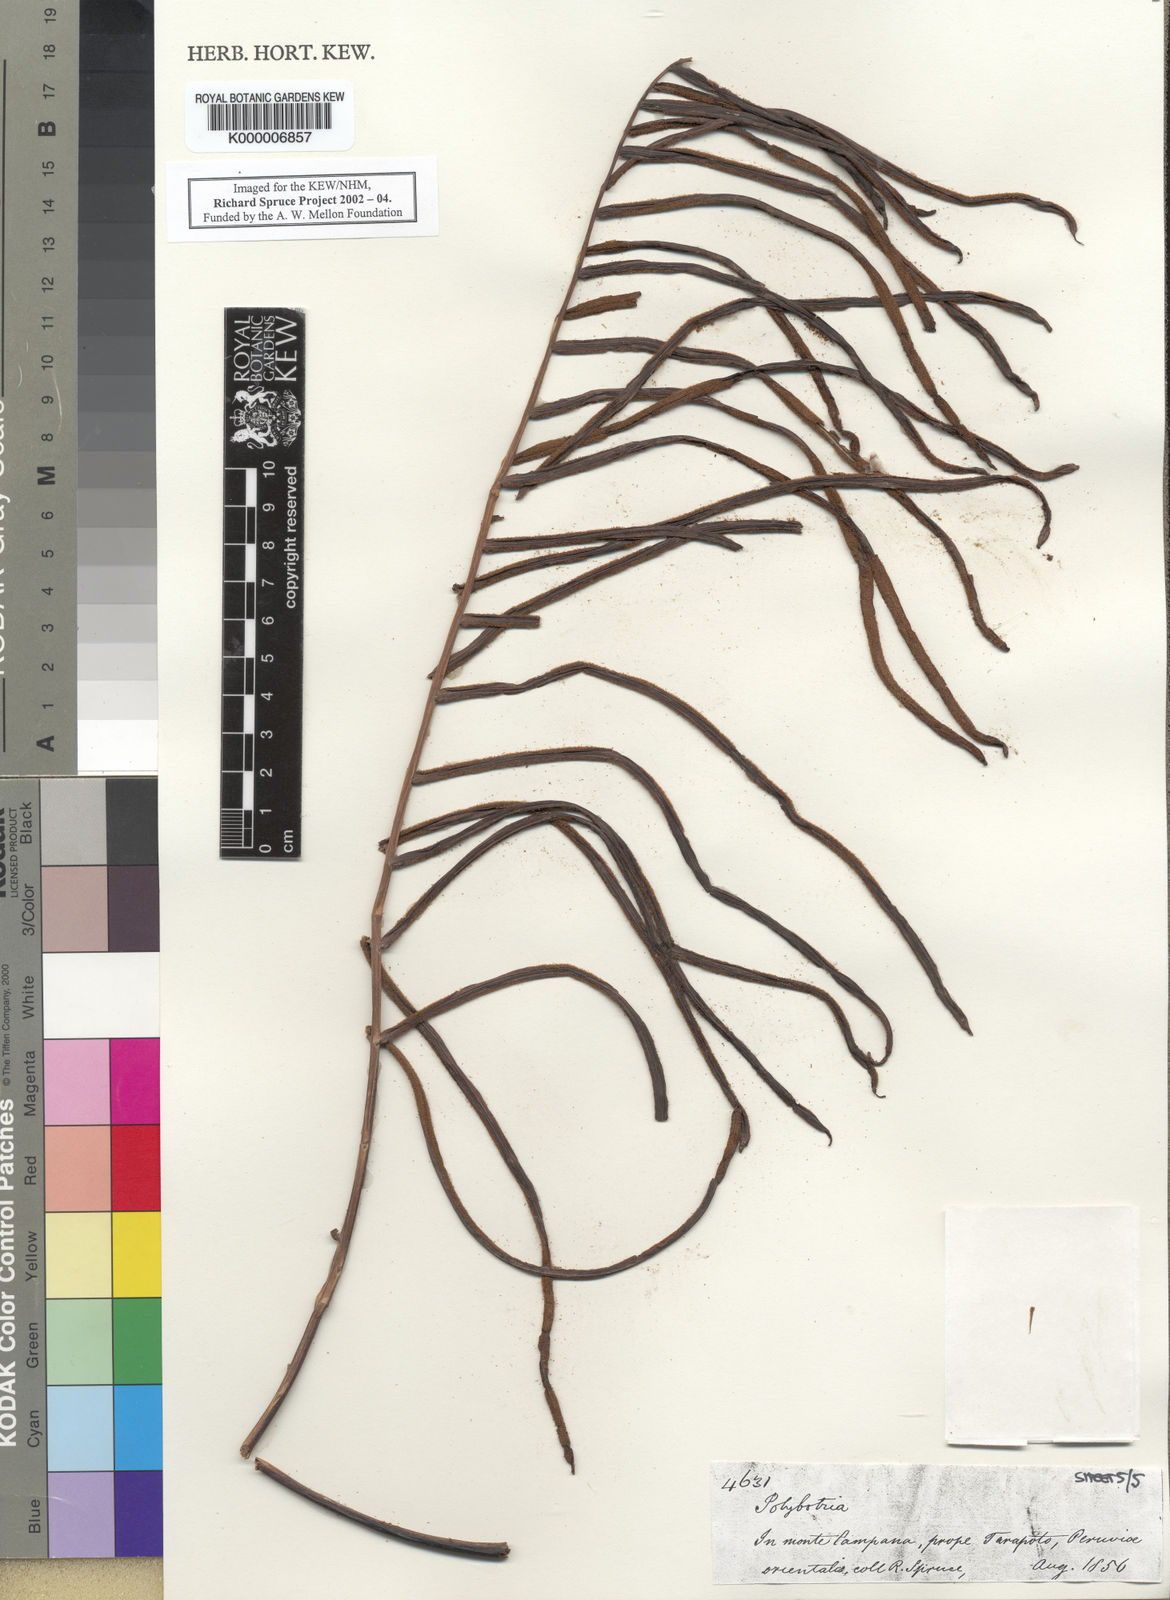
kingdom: Plantae
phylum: Tracheophyta
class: Polypodiopsida
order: Polypodiales
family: Dryopteridaceae
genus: Polybotrya
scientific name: Polybotrya
